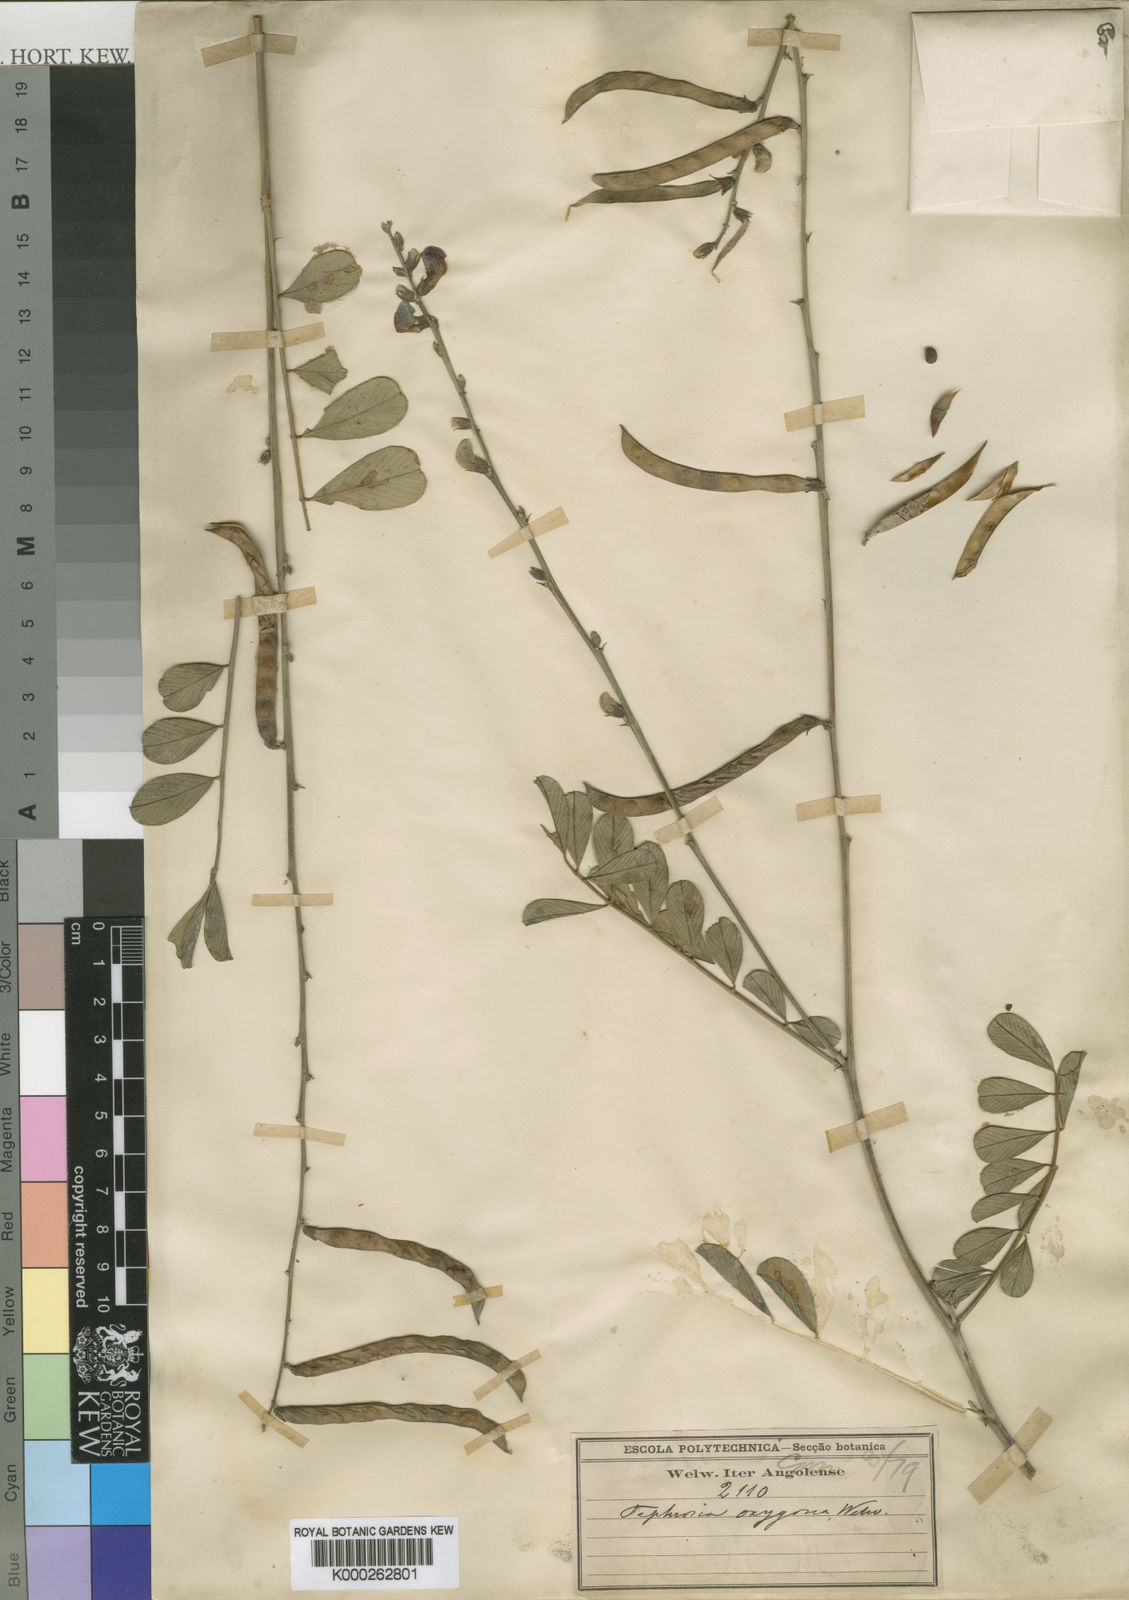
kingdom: Plantae
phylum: Tracheophyta
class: Magnoliopsida
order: Fabales
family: Fabaceae
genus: Tephrosia
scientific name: Tephrosia oxygona
